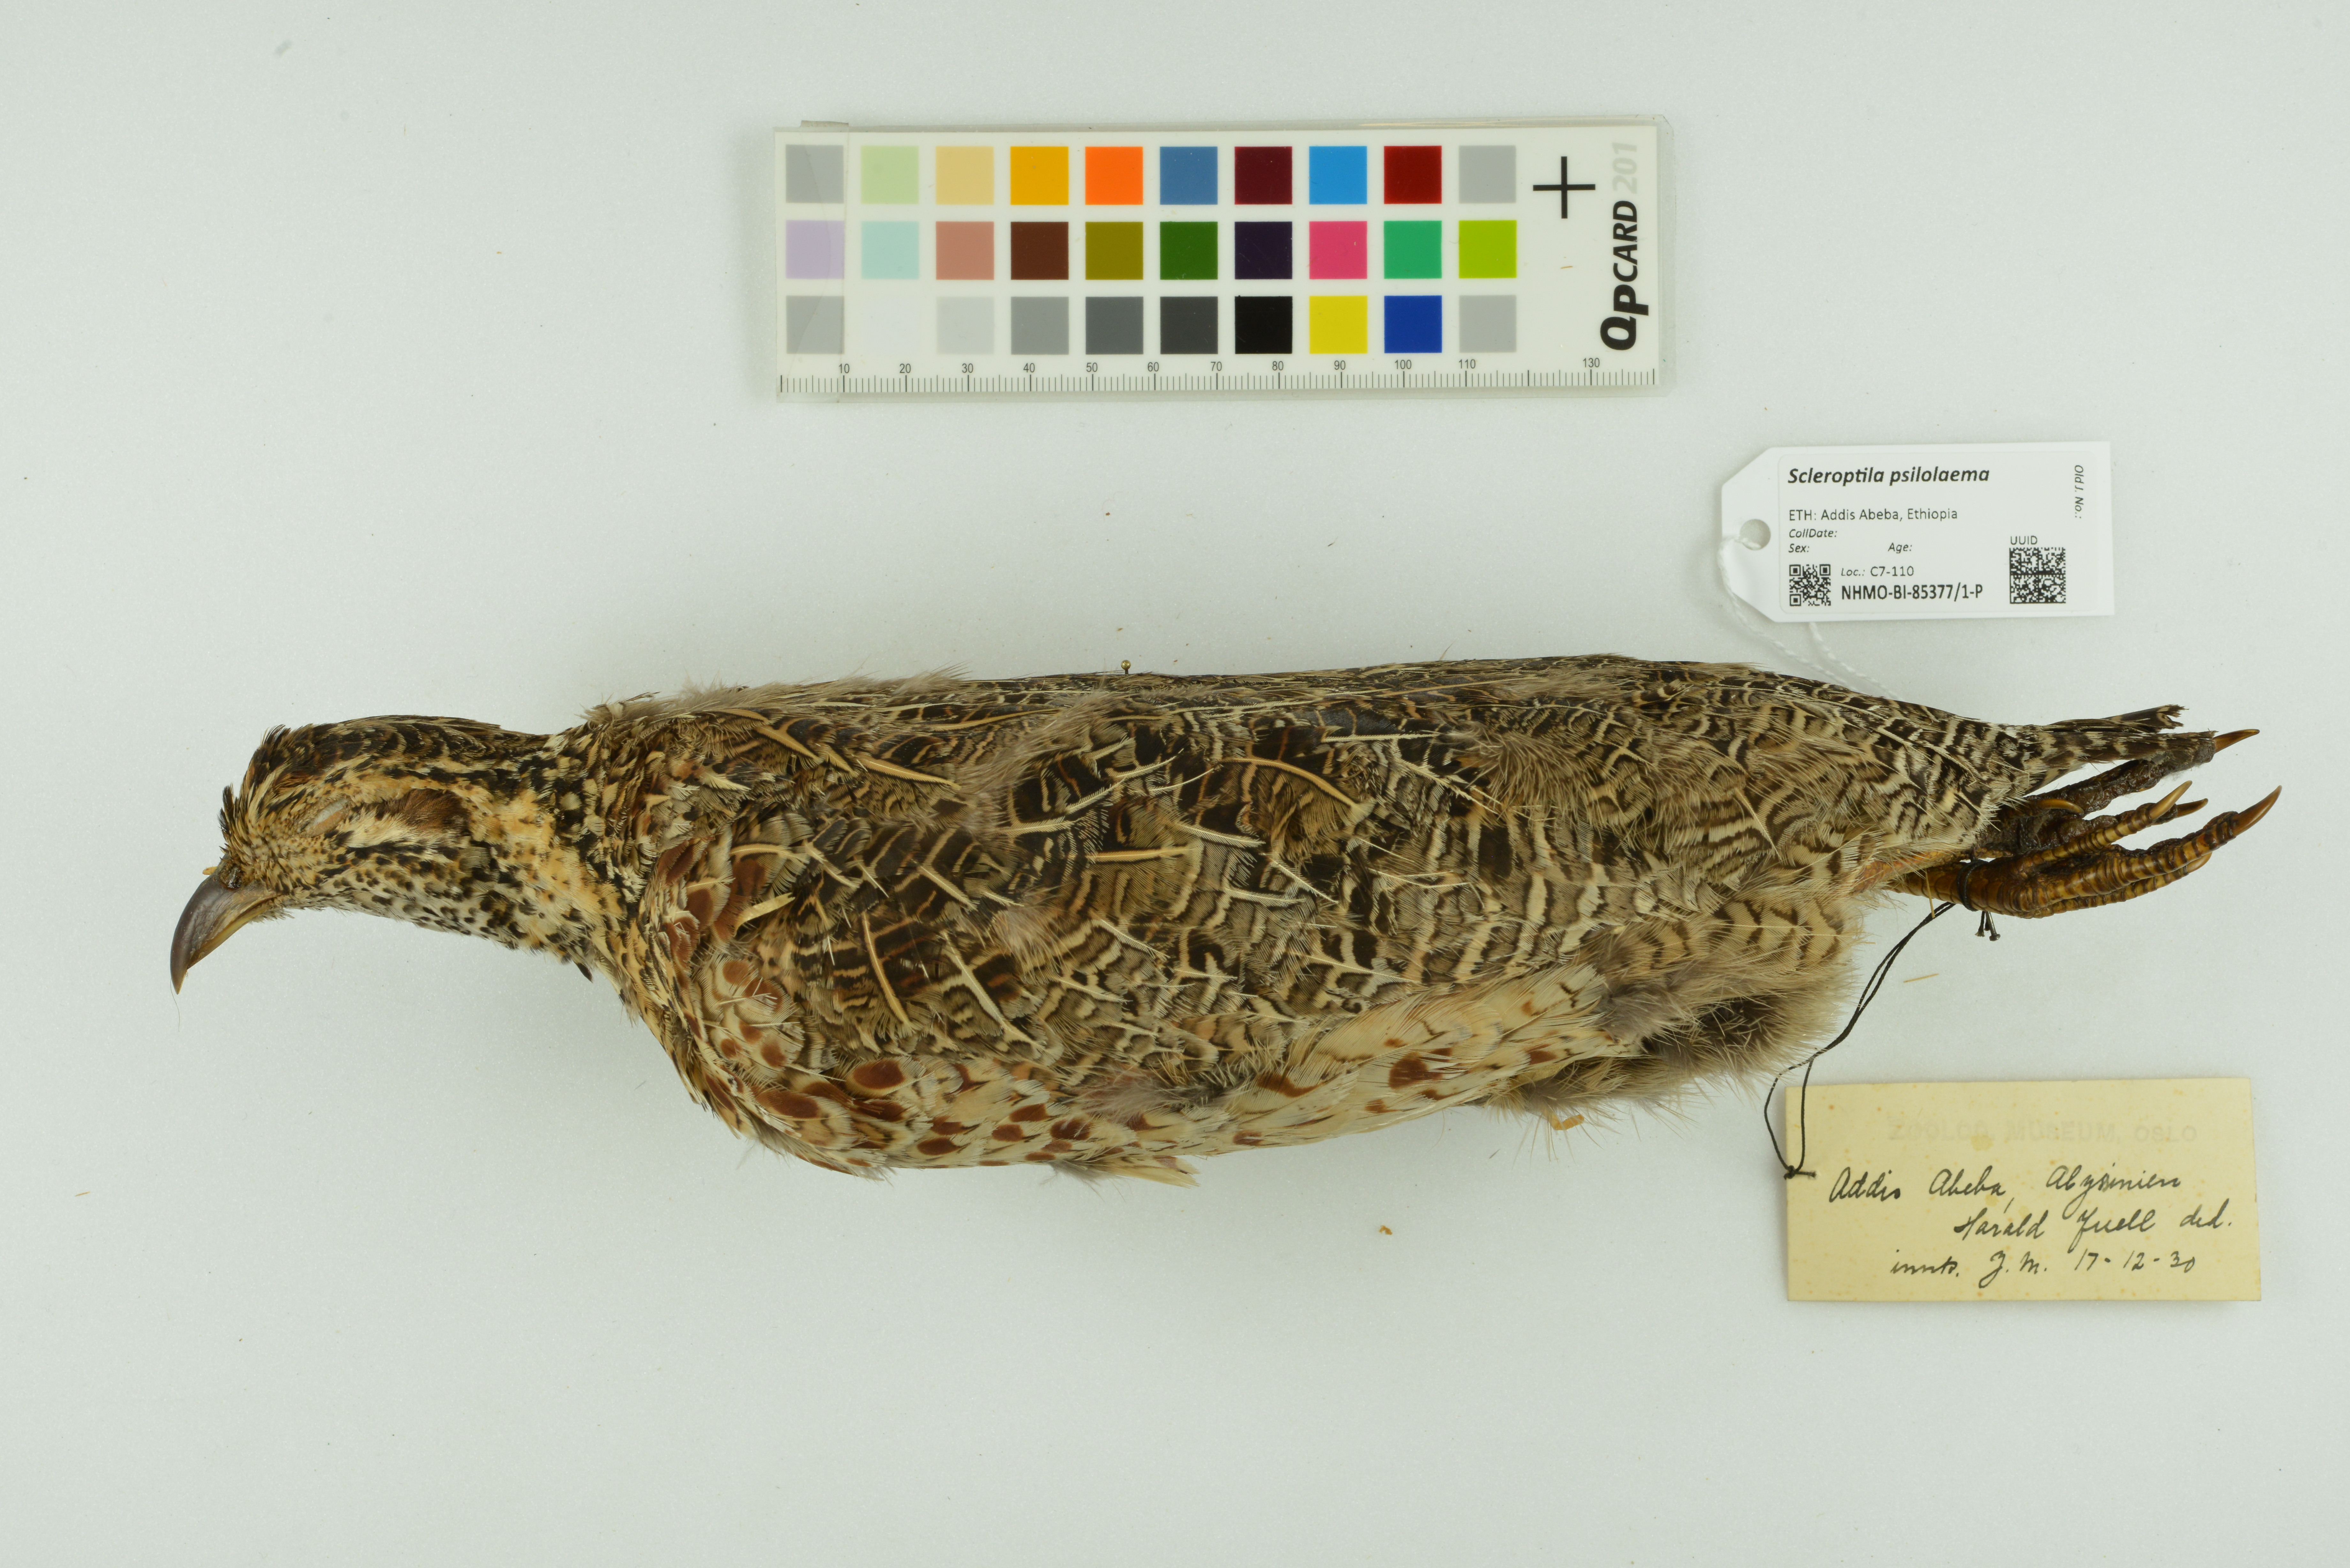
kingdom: Animalia
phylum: Chordata
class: Aves
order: Galliformes
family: Phasianidae
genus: Scleroptila
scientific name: Scleroptila psilolaema
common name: Moorland francolin
